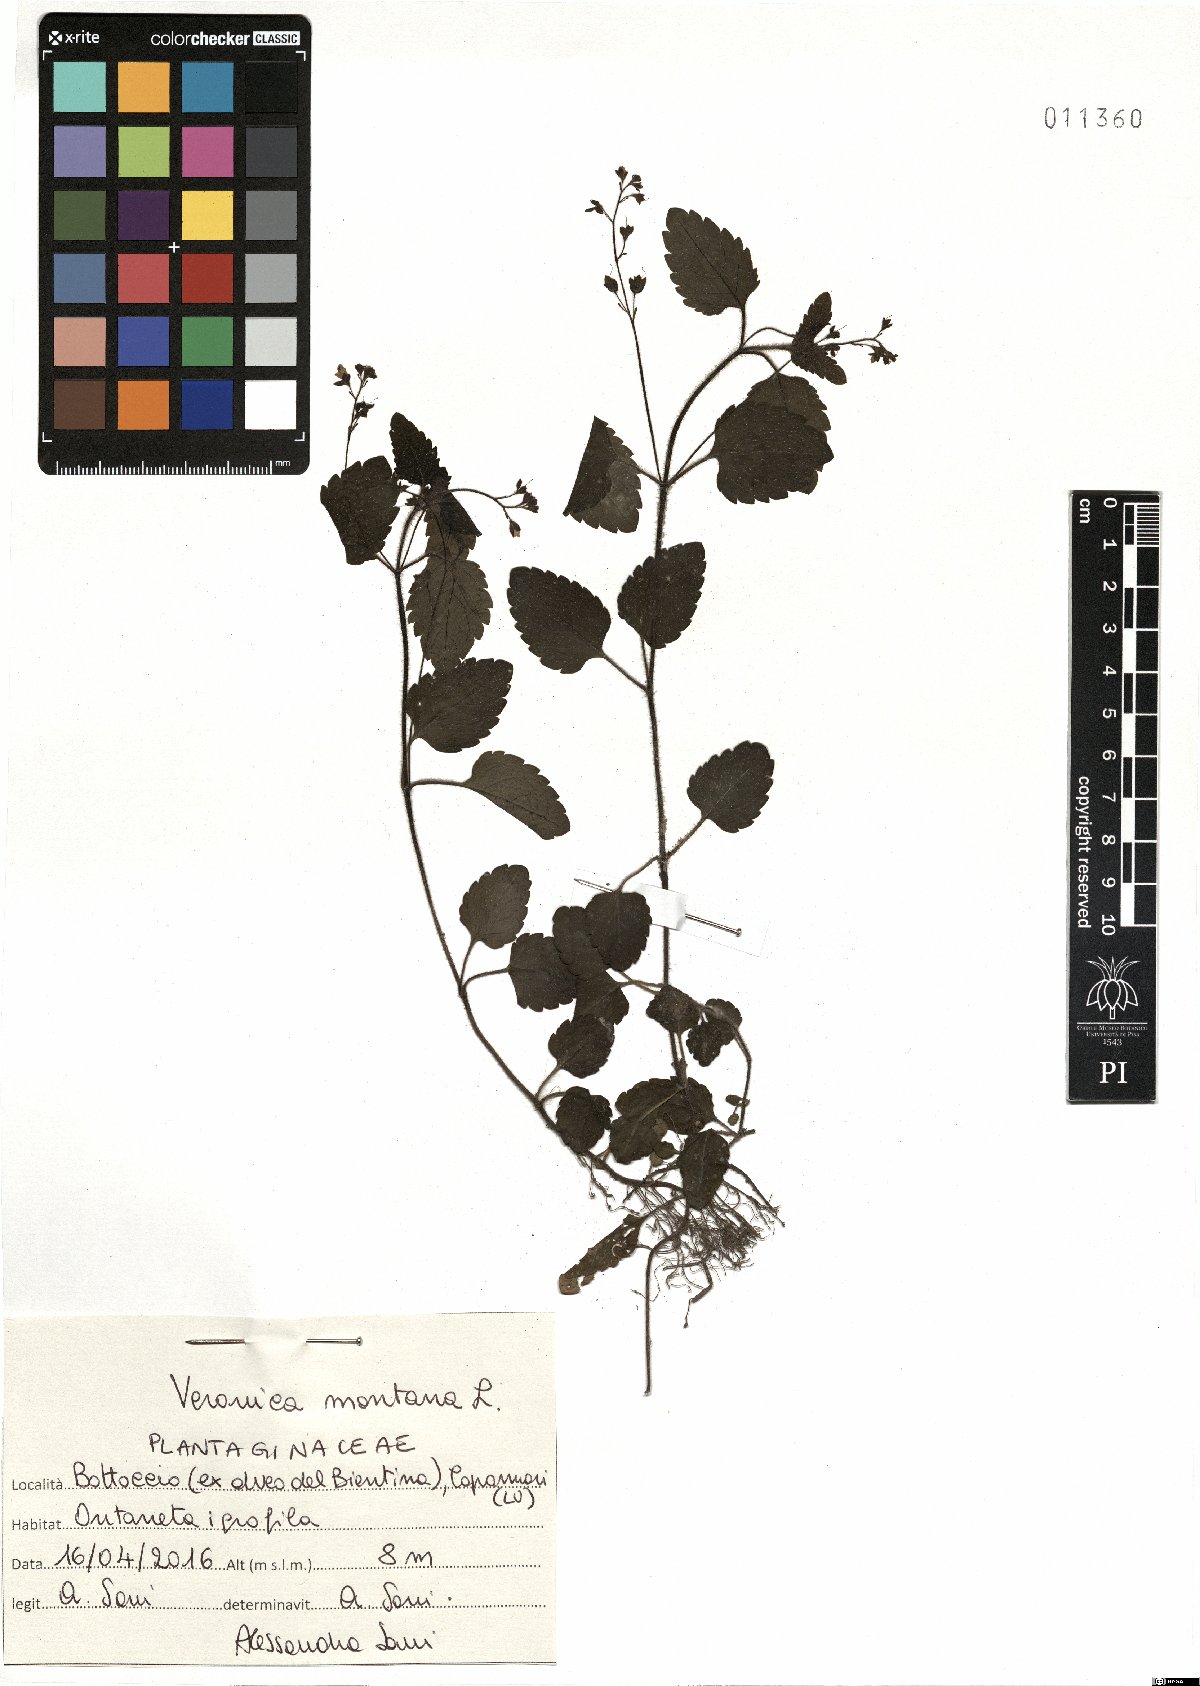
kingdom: Plantae
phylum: Tracheophyta
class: Magnoliopsida
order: Lamiales
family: Plantaginaceae
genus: Veronica
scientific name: Veronica montana
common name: Wood speedwell
